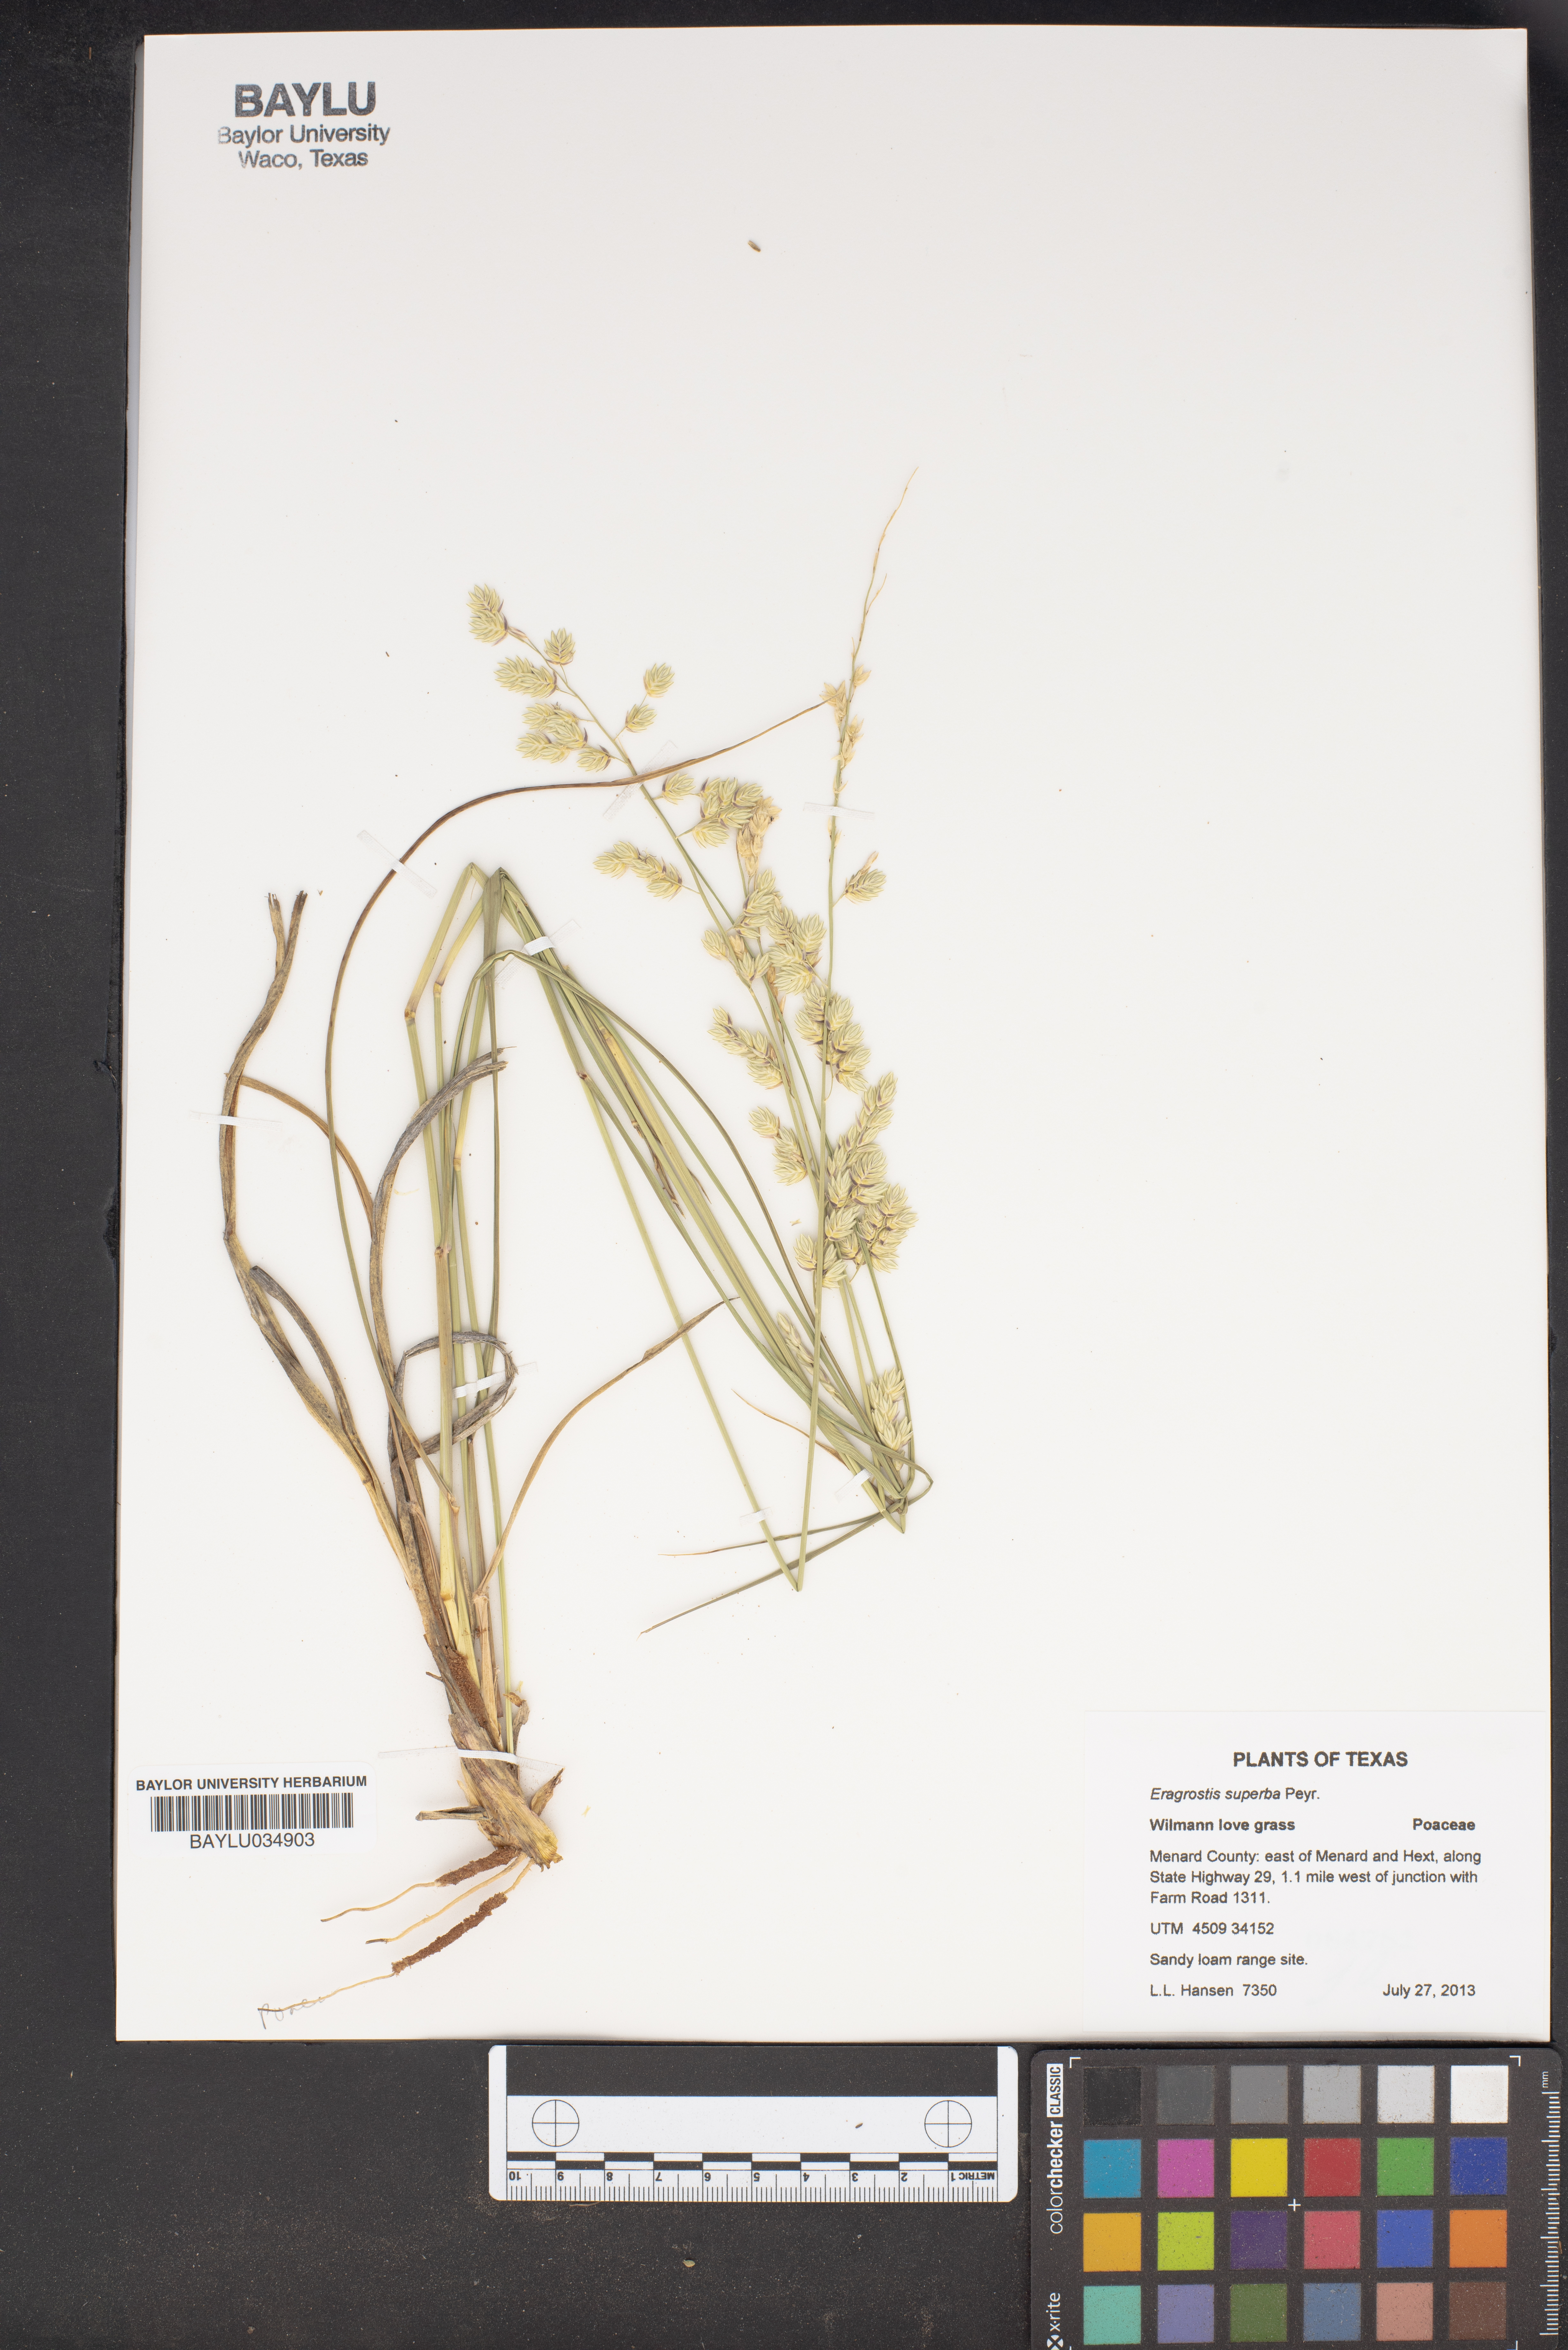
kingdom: Plantae
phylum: Tracheophyta
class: Liliopsida
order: Poales
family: Poaceae
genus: Eragrostis
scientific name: Eragrostis superba
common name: Wilman lovegrass
